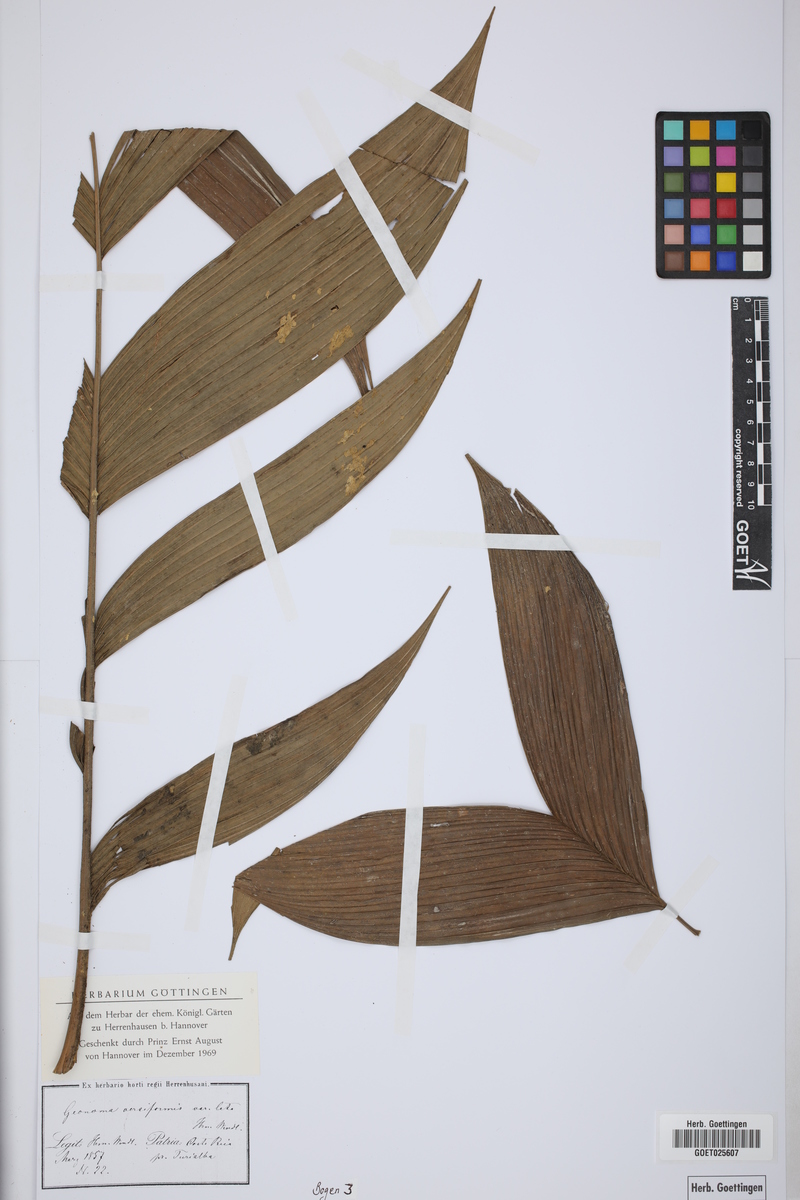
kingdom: Plantae
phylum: Tracheophyta
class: Liliopsida
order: Arecales
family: Arecaceae
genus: Geonoma
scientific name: Geonoma ferruginea
